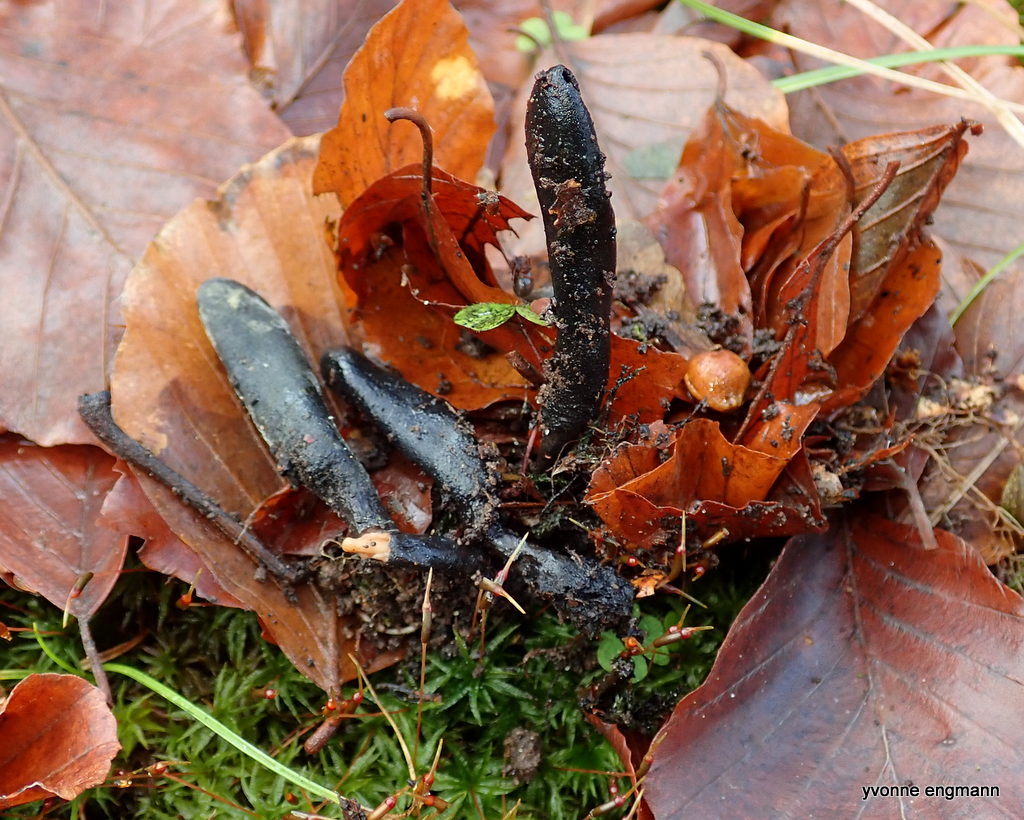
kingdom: Fungi
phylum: Ascomycota
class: Sordariomycetes
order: Xylariales
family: Xylariaceae
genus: Xylaria
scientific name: Xylaria longipes
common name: slank stødsvamp
